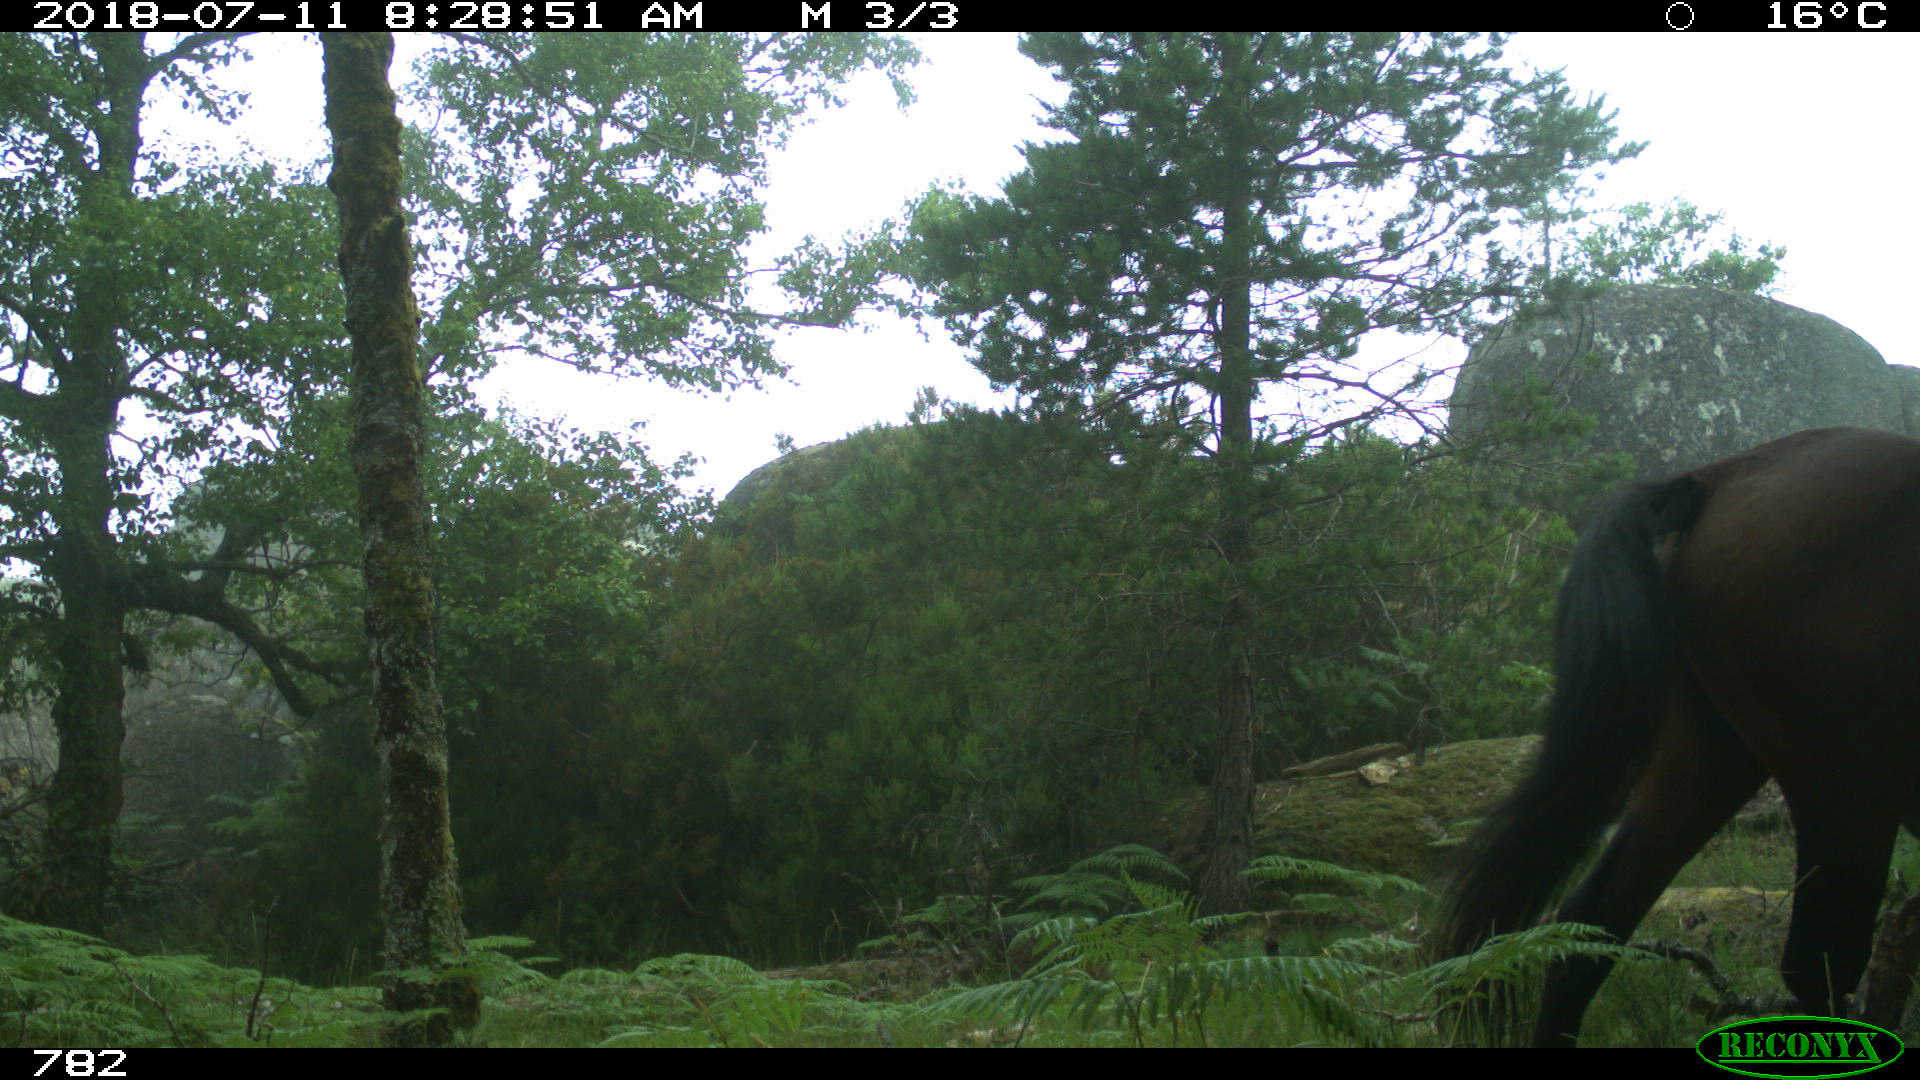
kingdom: Animalia
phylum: Chordata
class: Mammalia
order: Perissodactyla
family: Equidae
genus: Equus
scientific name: Equus caballus
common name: Horse
